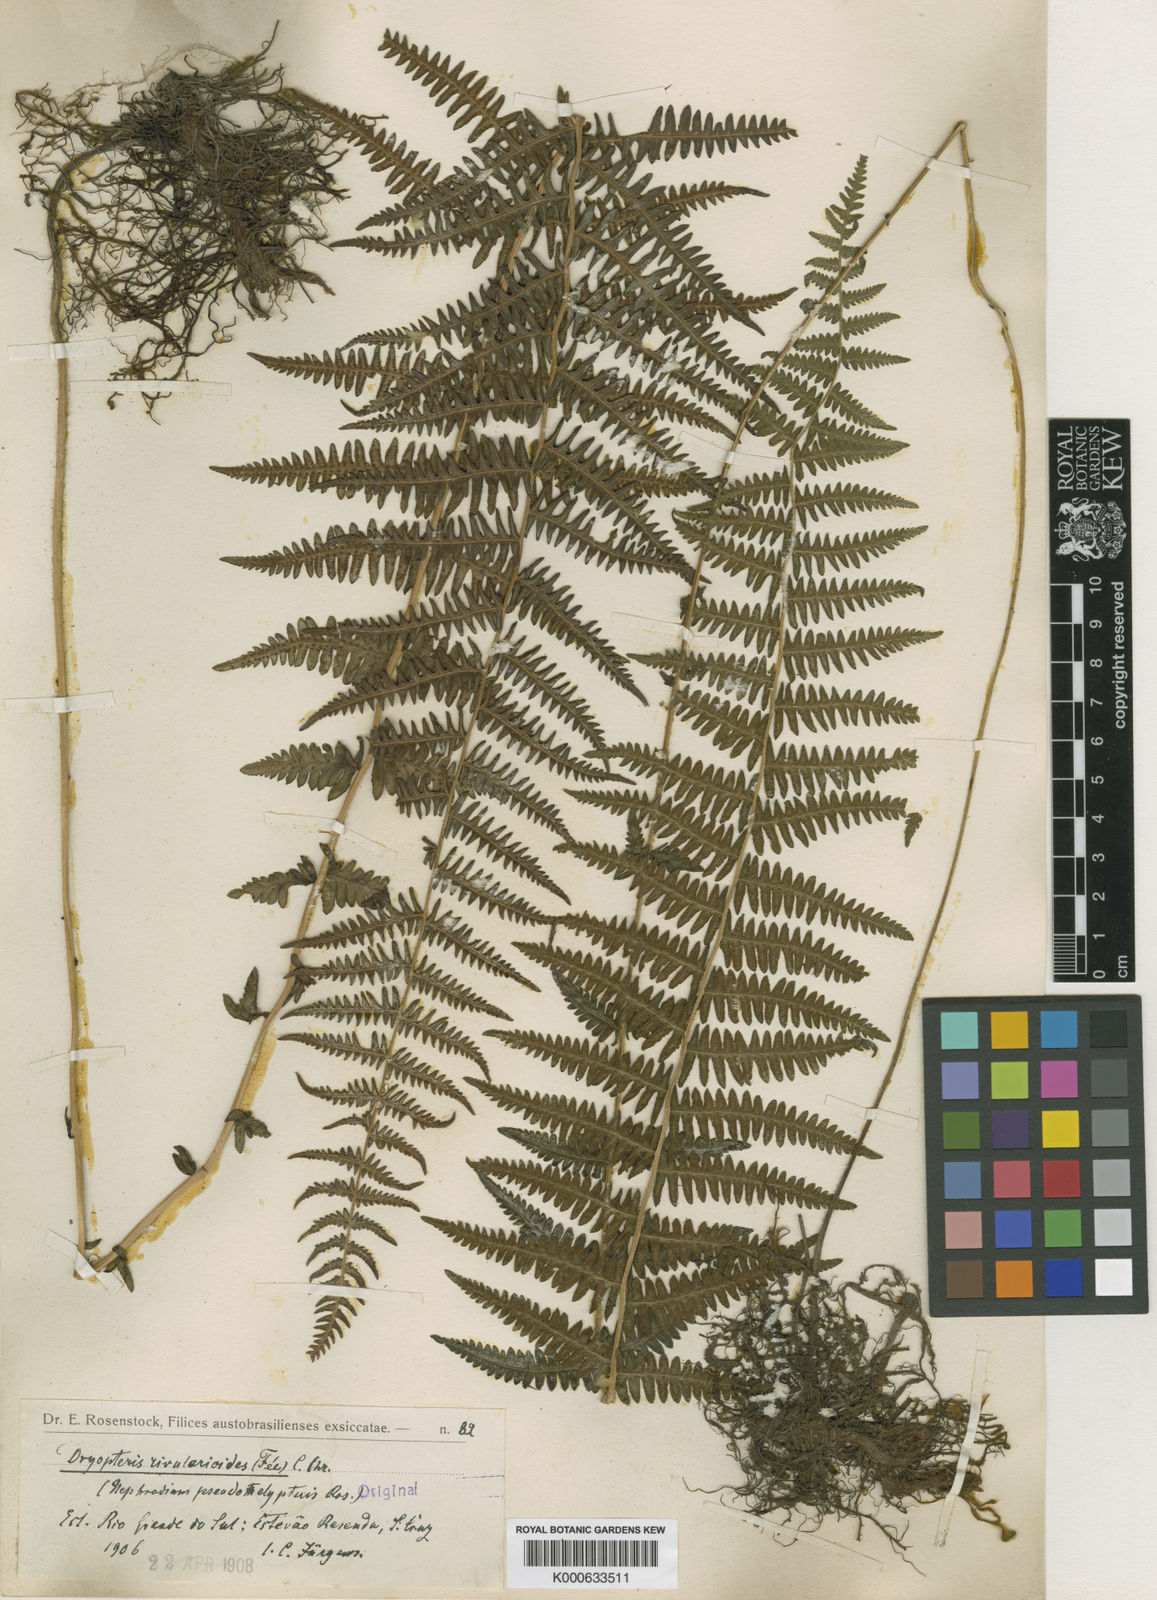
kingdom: Plantae
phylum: Tracheophyta
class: Polypodiopsida
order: Polypodiales
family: Thelypteridaceae
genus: Amauropelta
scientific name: Amauropelta
